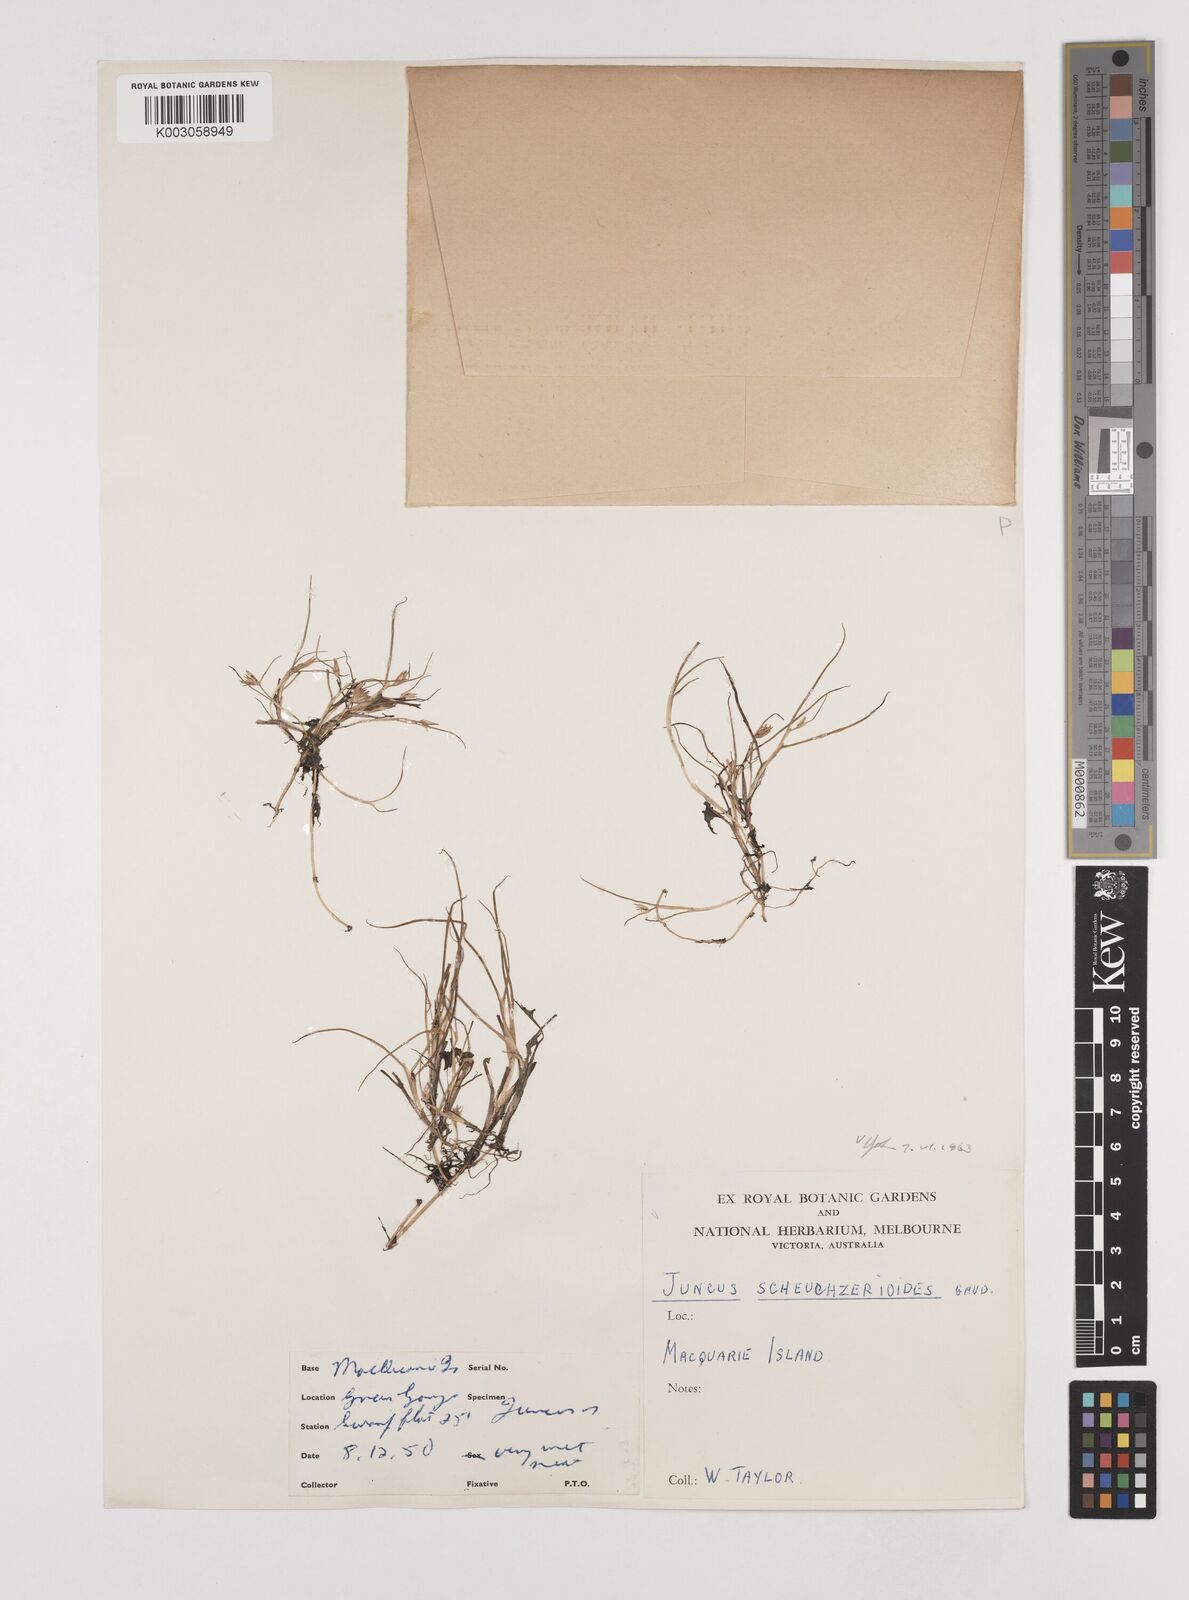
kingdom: Plantae
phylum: Tracheophyta
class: Liliopsida
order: Poales
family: Juncaceae
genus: Juncus
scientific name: Juncus scheuchzerioides
